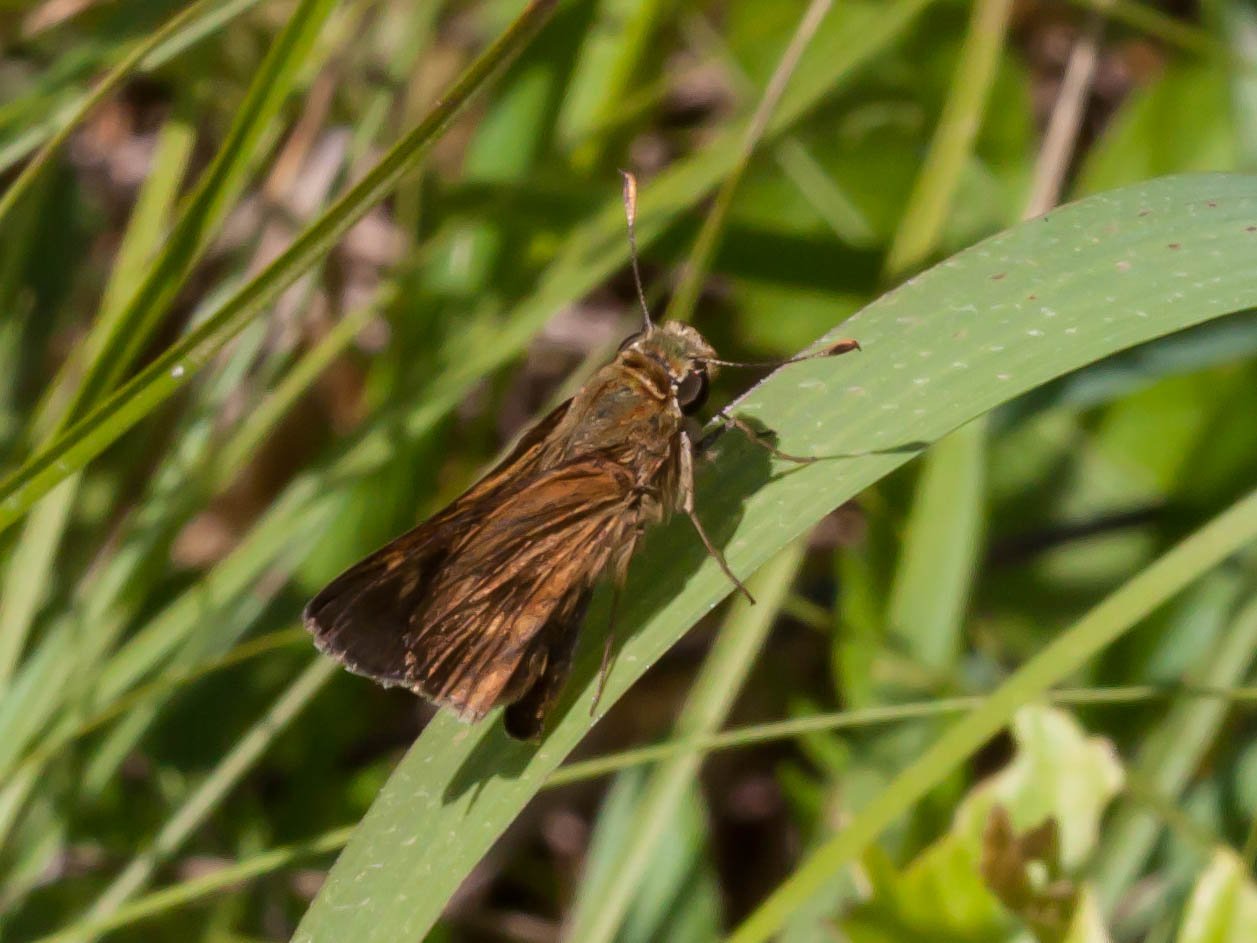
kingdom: Animalia
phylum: Arthropoda
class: Insecta
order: Lepidoptera
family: Hesperiidae
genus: Wallengrenia
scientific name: Wallengrenia otho
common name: Southern Broken-Dash
